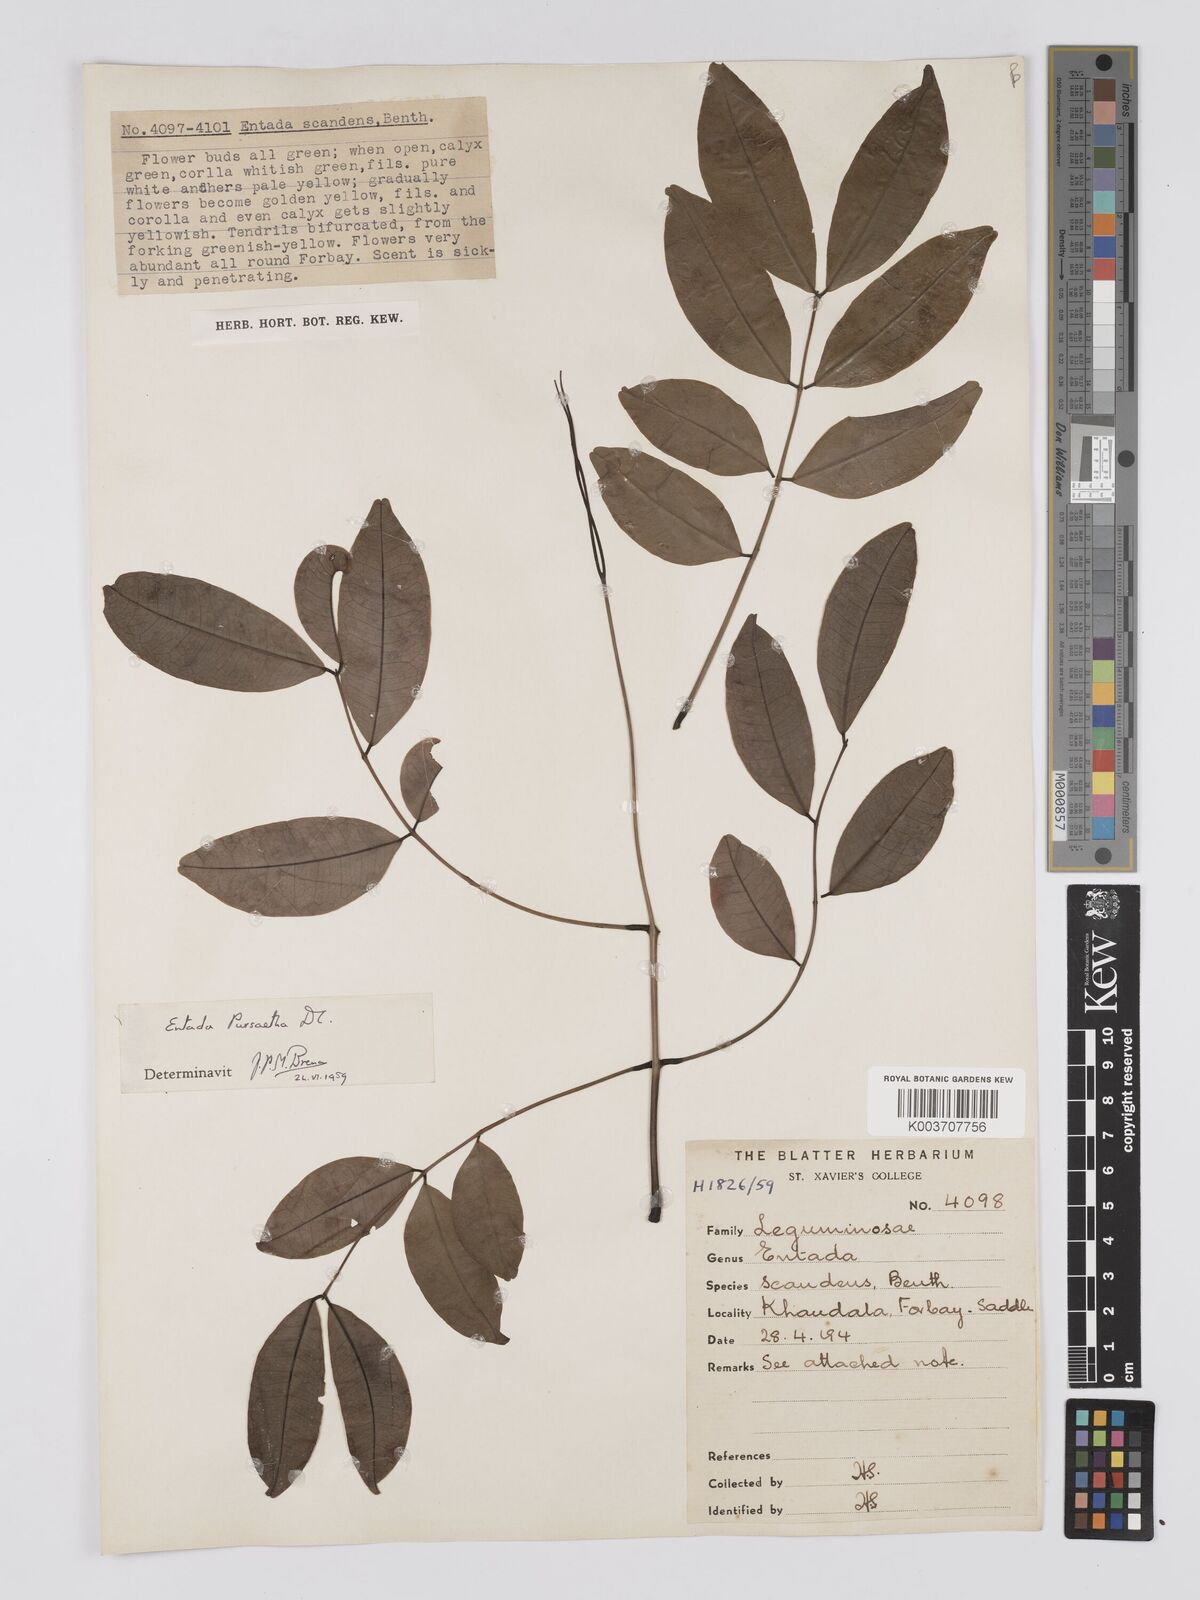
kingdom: Plantae
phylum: Tracheophyta
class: Magnoliopsida
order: Fabales
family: Fabaceae
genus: Entada
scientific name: Entada rheedei
